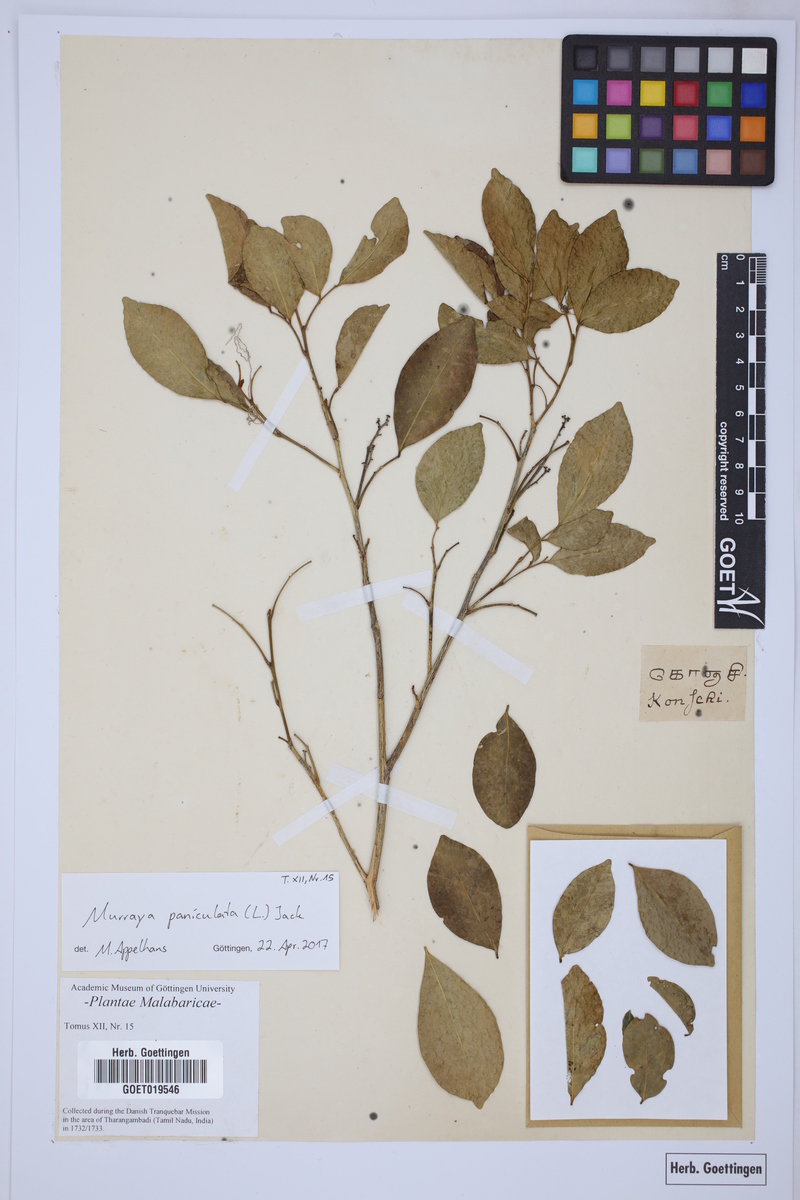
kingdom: Plantae
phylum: Tracheophyta
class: Magnoliopsida
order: Sapindales
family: Rutaceae
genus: Murraya
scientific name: Murraya paniculata
